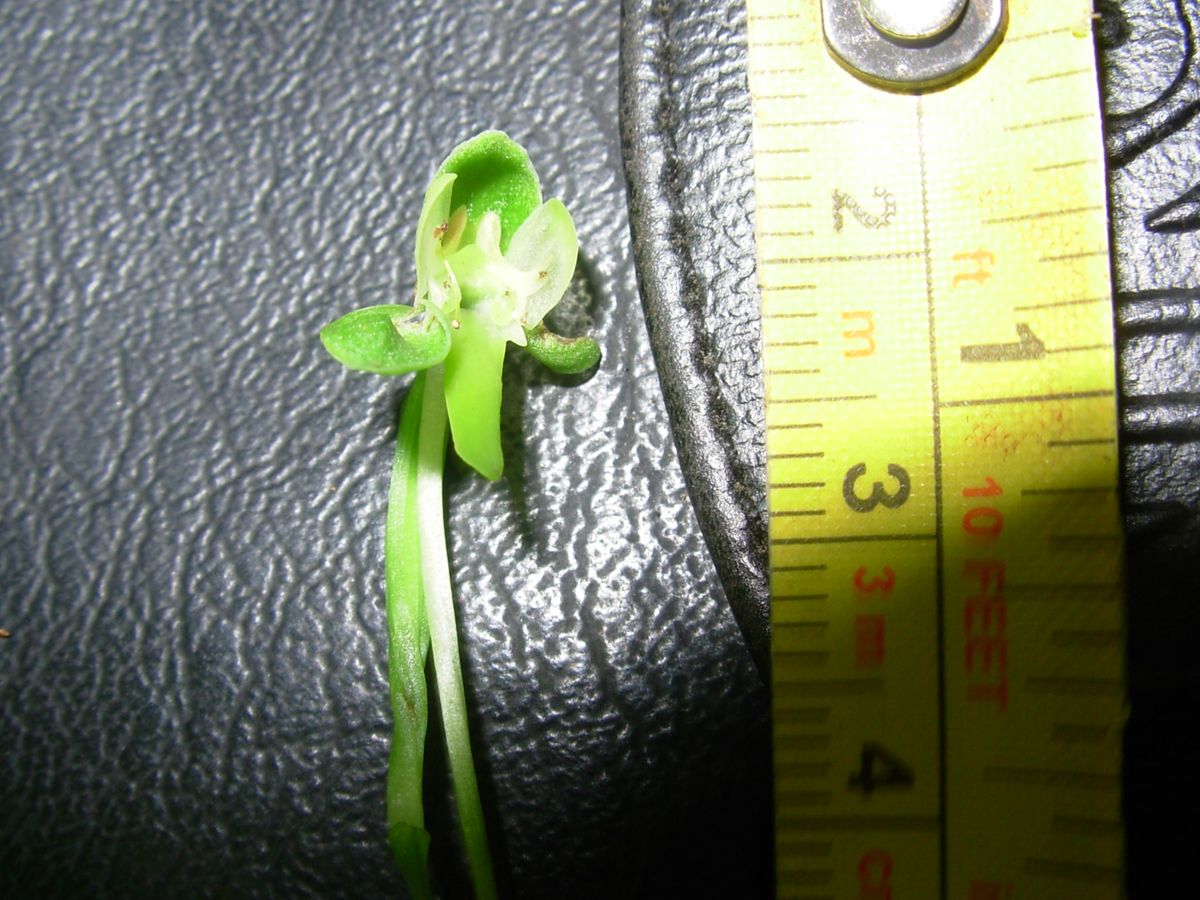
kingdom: Plantae
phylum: Tracheophyta
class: Liliopsida
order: Asparagales
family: Orchidaceae
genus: Habenaria
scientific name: Habenaria strictissima
